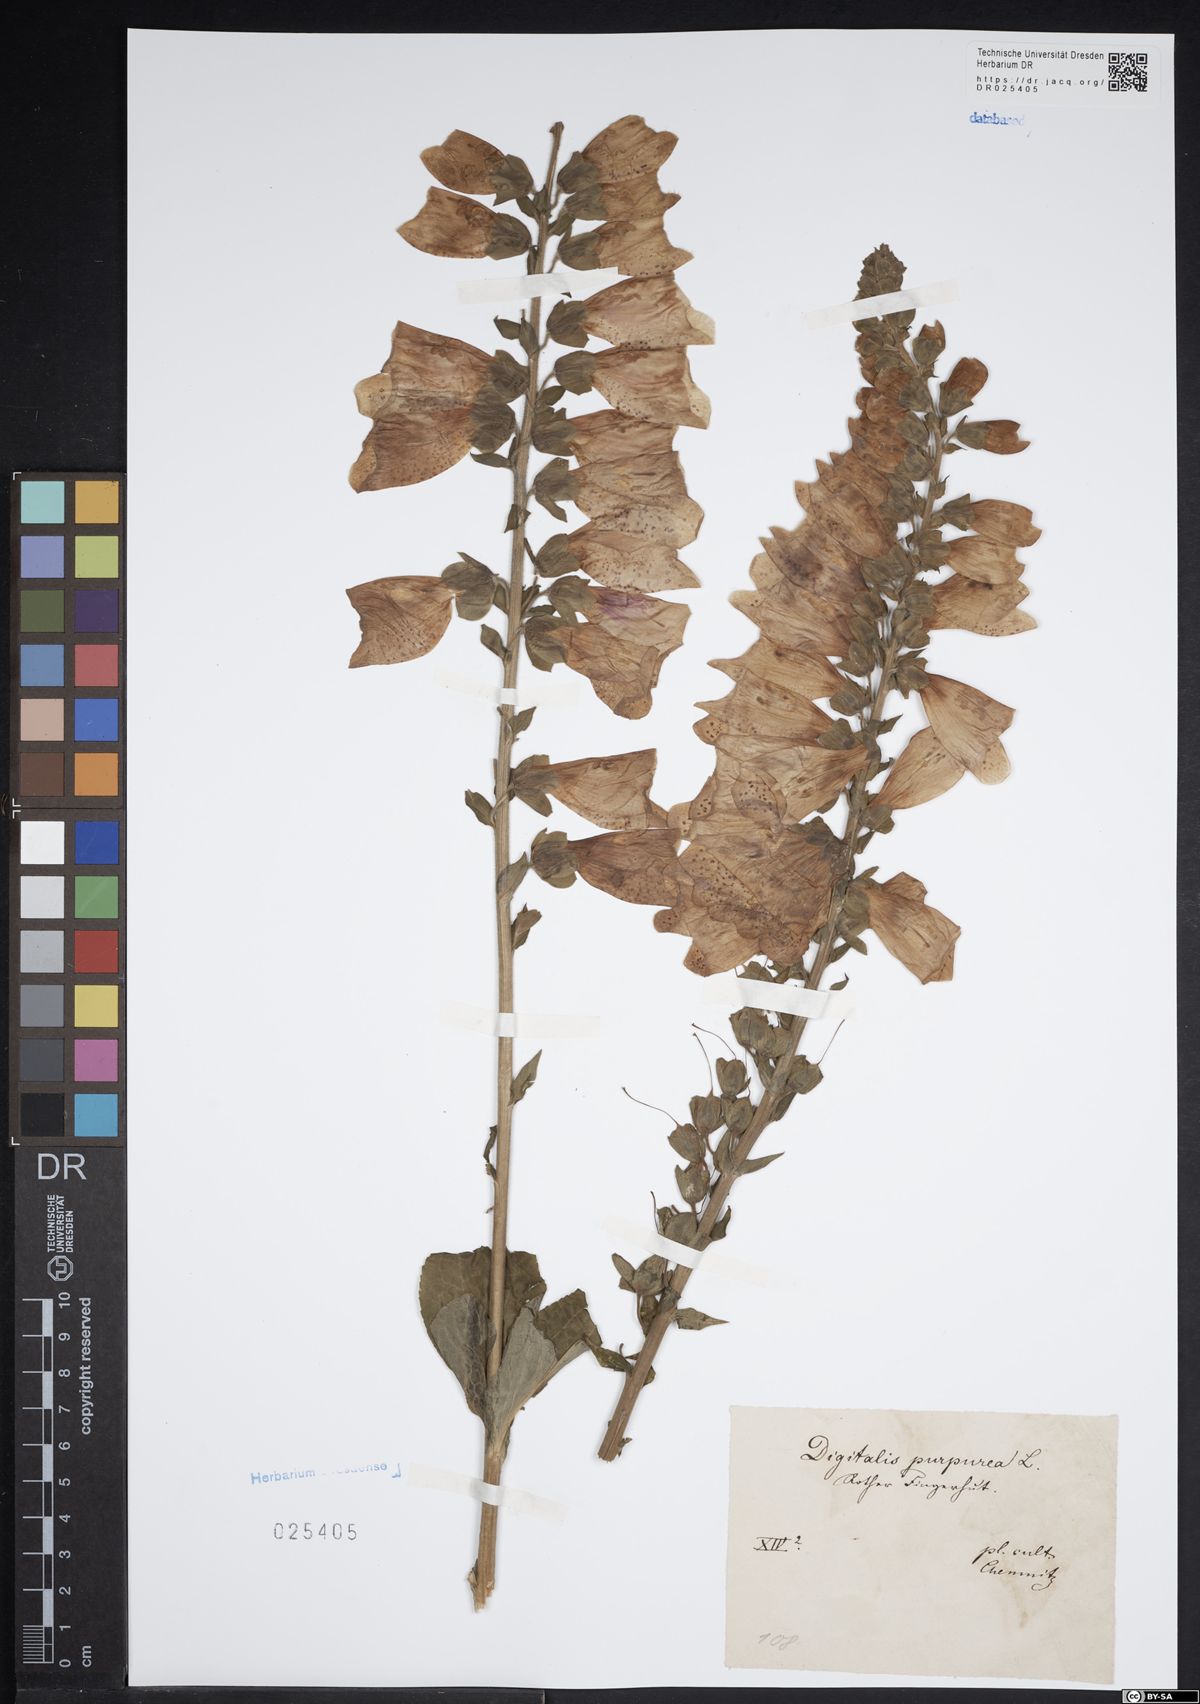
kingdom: Plantae
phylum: Tracheophyta
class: Magnoliopsida
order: Lamiales
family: Plantaginaceae
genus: Digitalis
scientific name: Digitalis purpurea
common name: Foxglove
